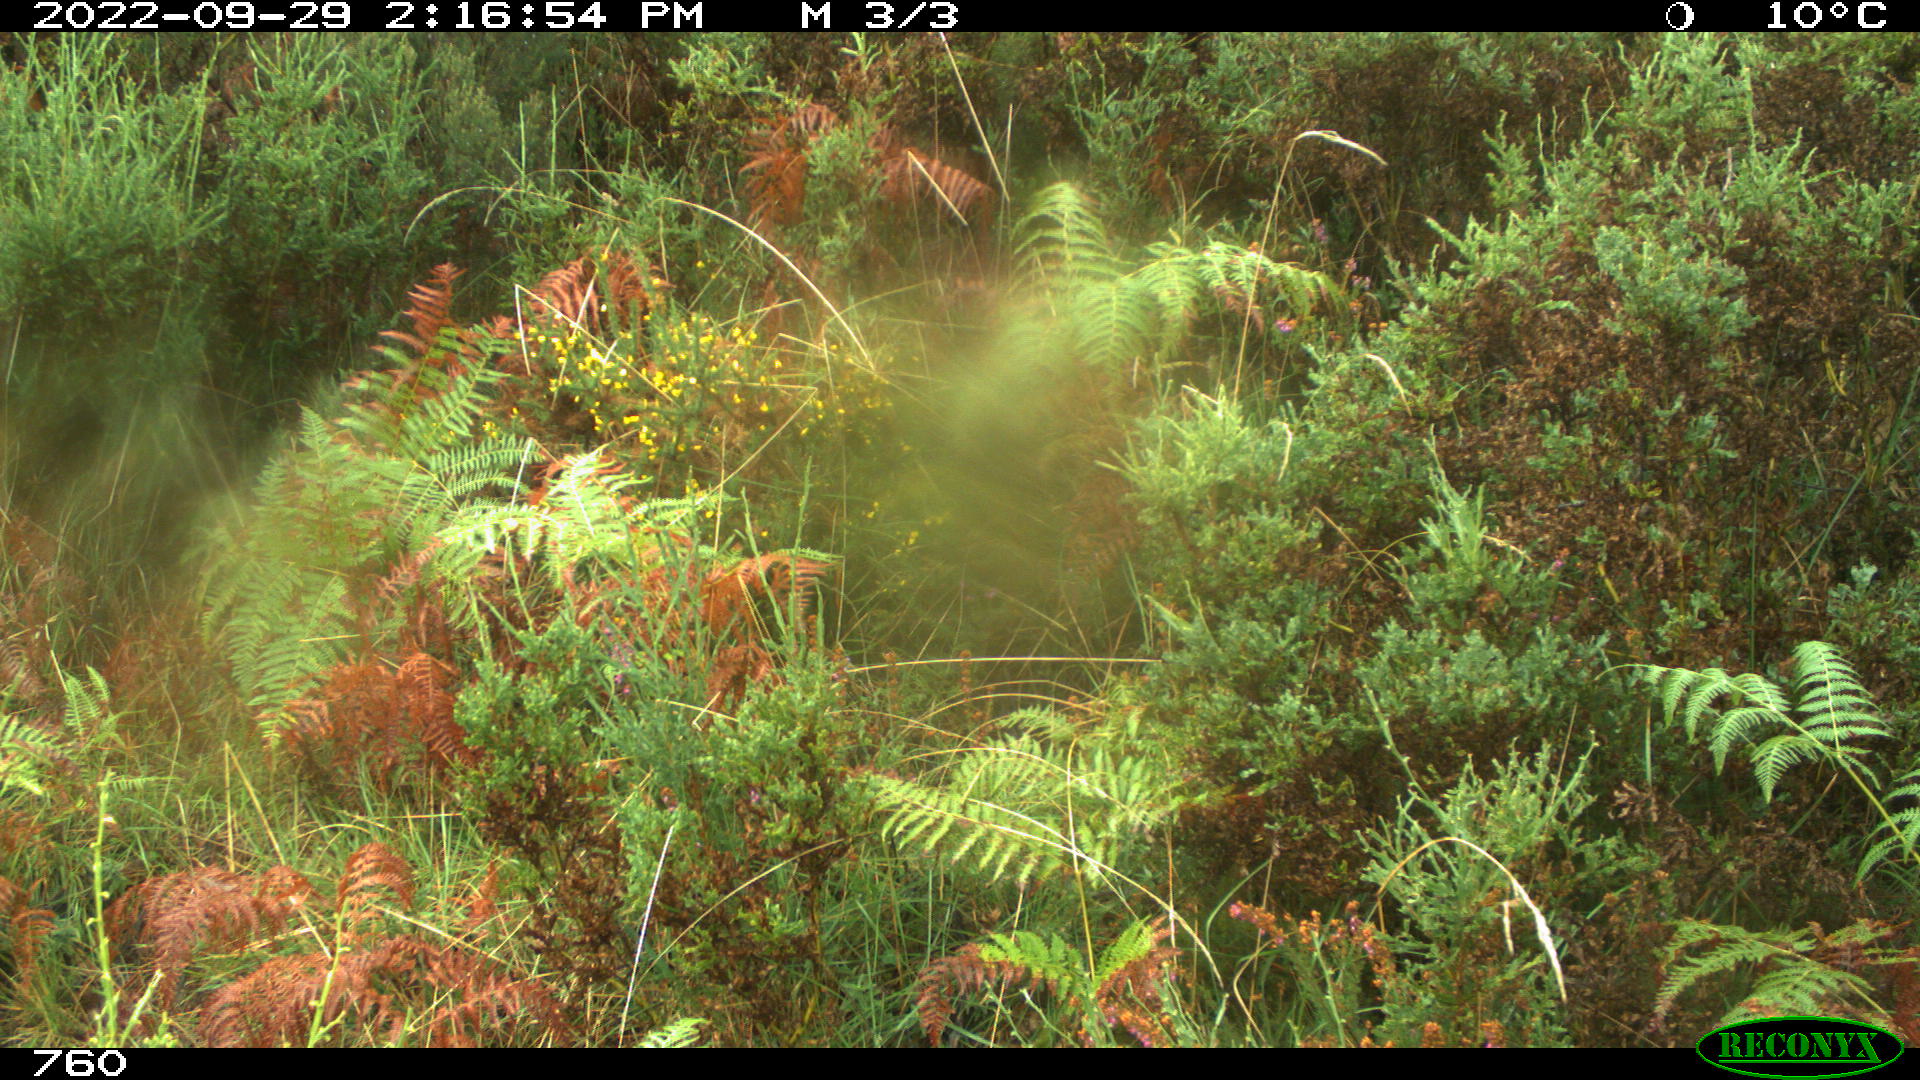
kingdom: Animalia
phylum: Chordata
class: Mammalia
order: Carnivora
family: Canidae
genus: Canis
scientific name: Canis lupus
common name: Gray wolf
